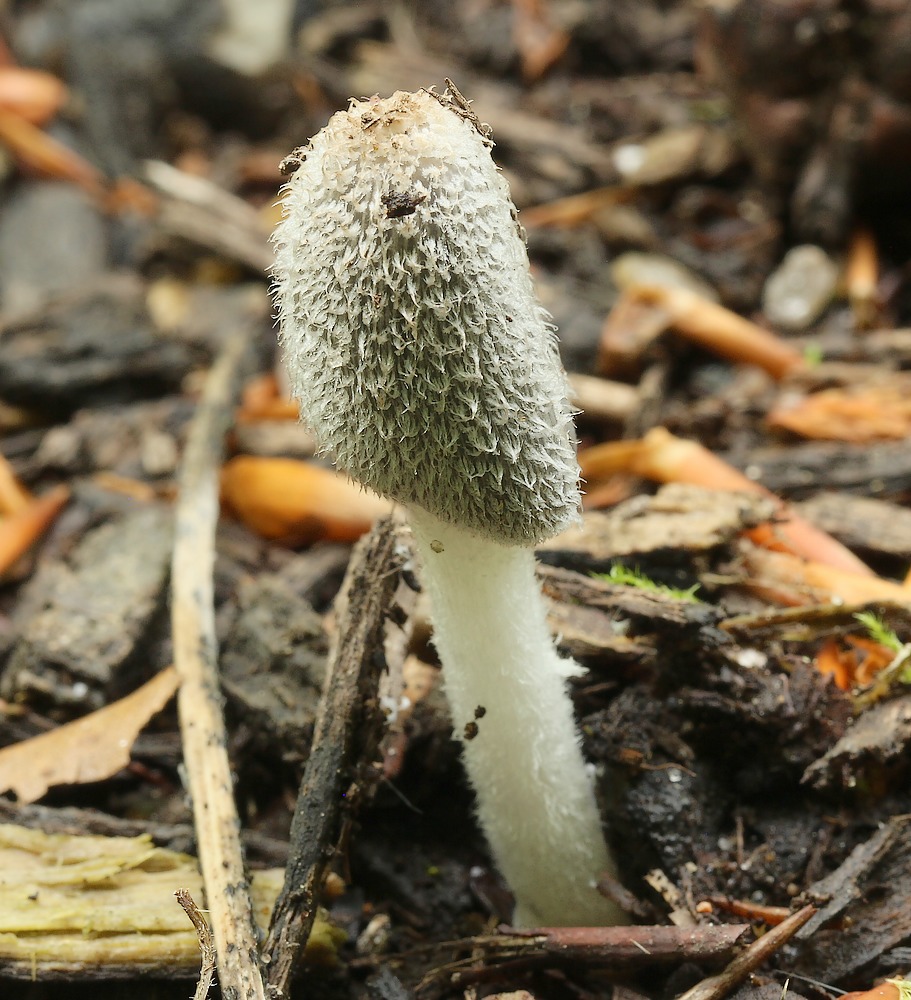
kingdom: Fungi
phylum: Basidiomycota
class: Agaricomycetes
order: Agaricales
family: Psathyrellaceae
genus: Coprinopsis
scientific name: Coprinopsis lagopus
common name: dunstokket blækhat
